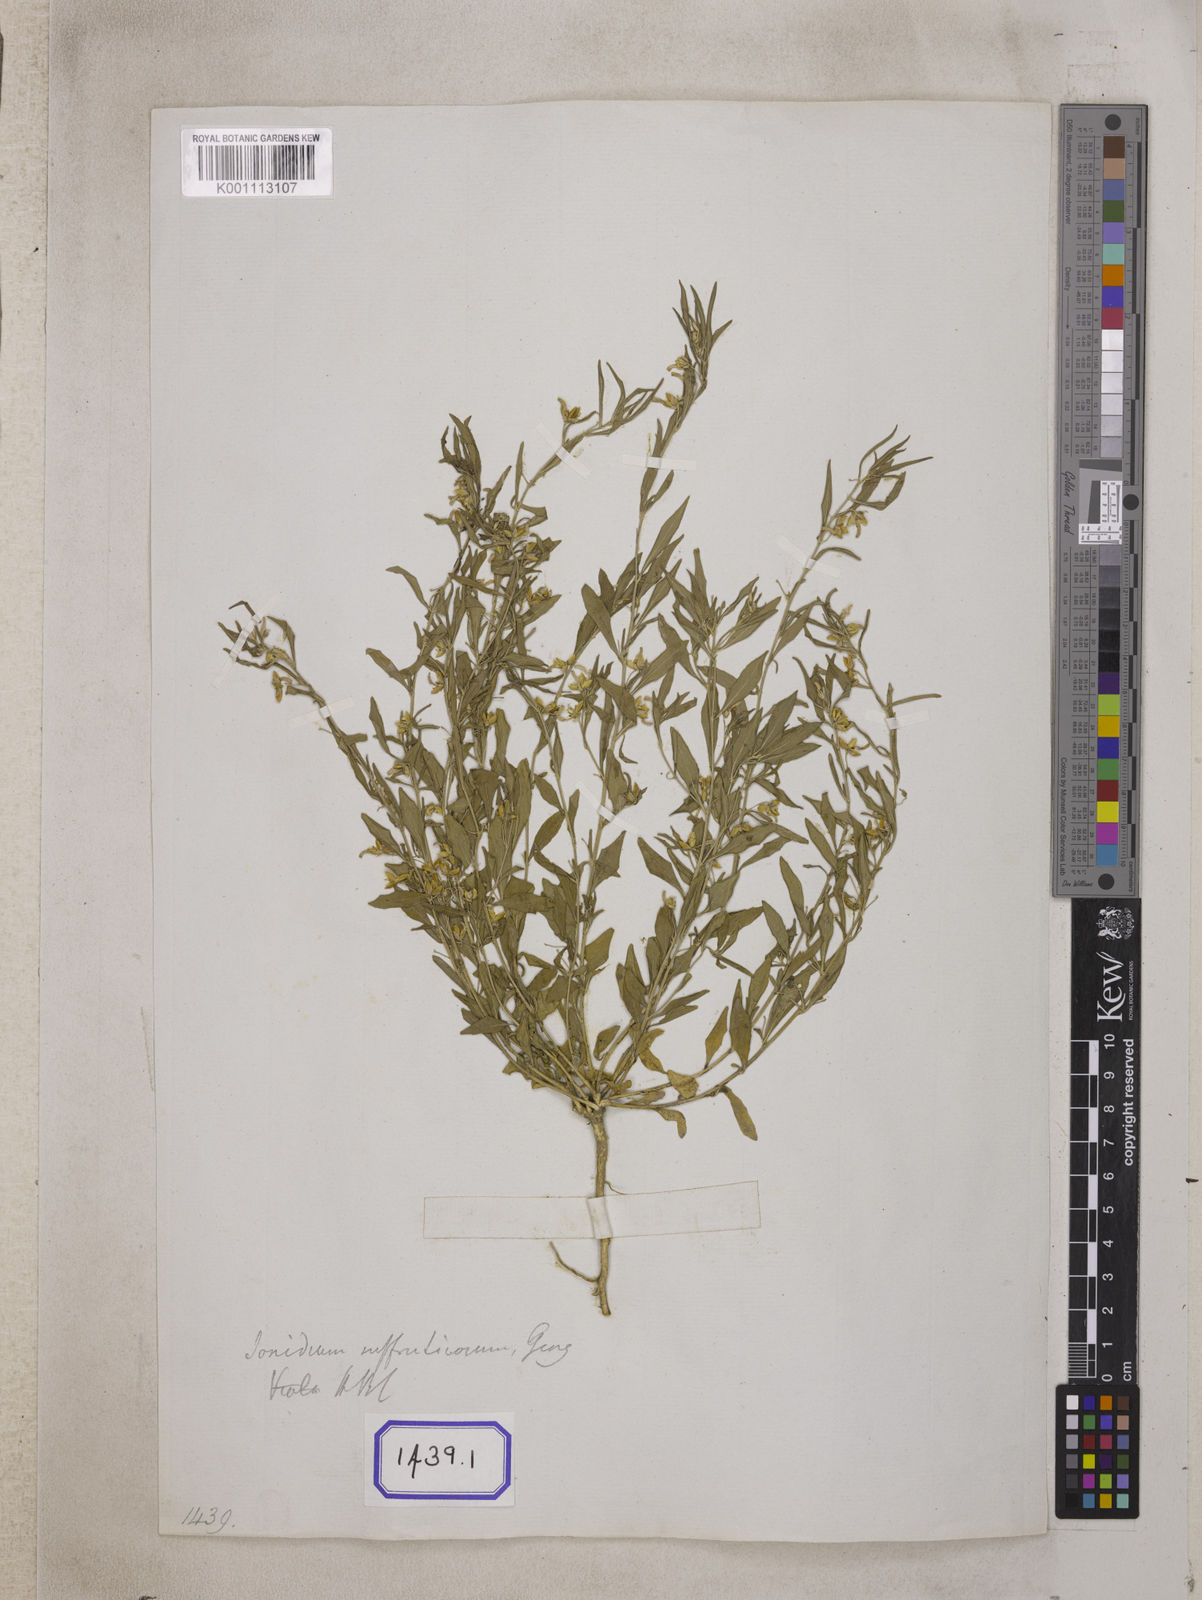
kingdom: Plantae
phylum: Tracheophyta
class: Magnoliopsida
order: Malpighiales
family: Violaceae
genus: Pigea
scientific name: Pigea enneasperma
